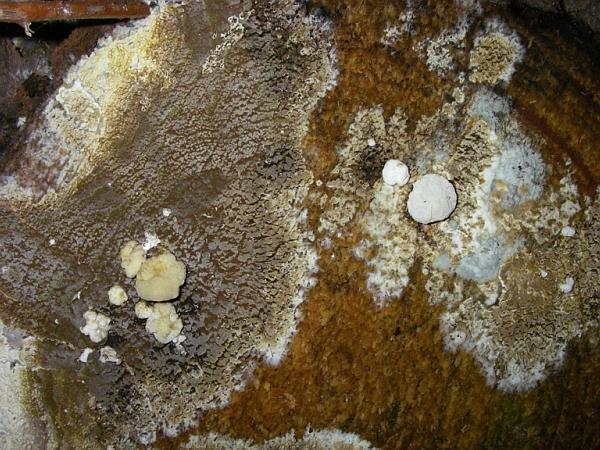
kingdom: Fungi
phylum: Ascomycota
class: Sordariomycetes
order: Xylariales
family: Hypoxylaceae
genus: Nodulisporium
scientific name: Nodulisporium cecidiogenes
